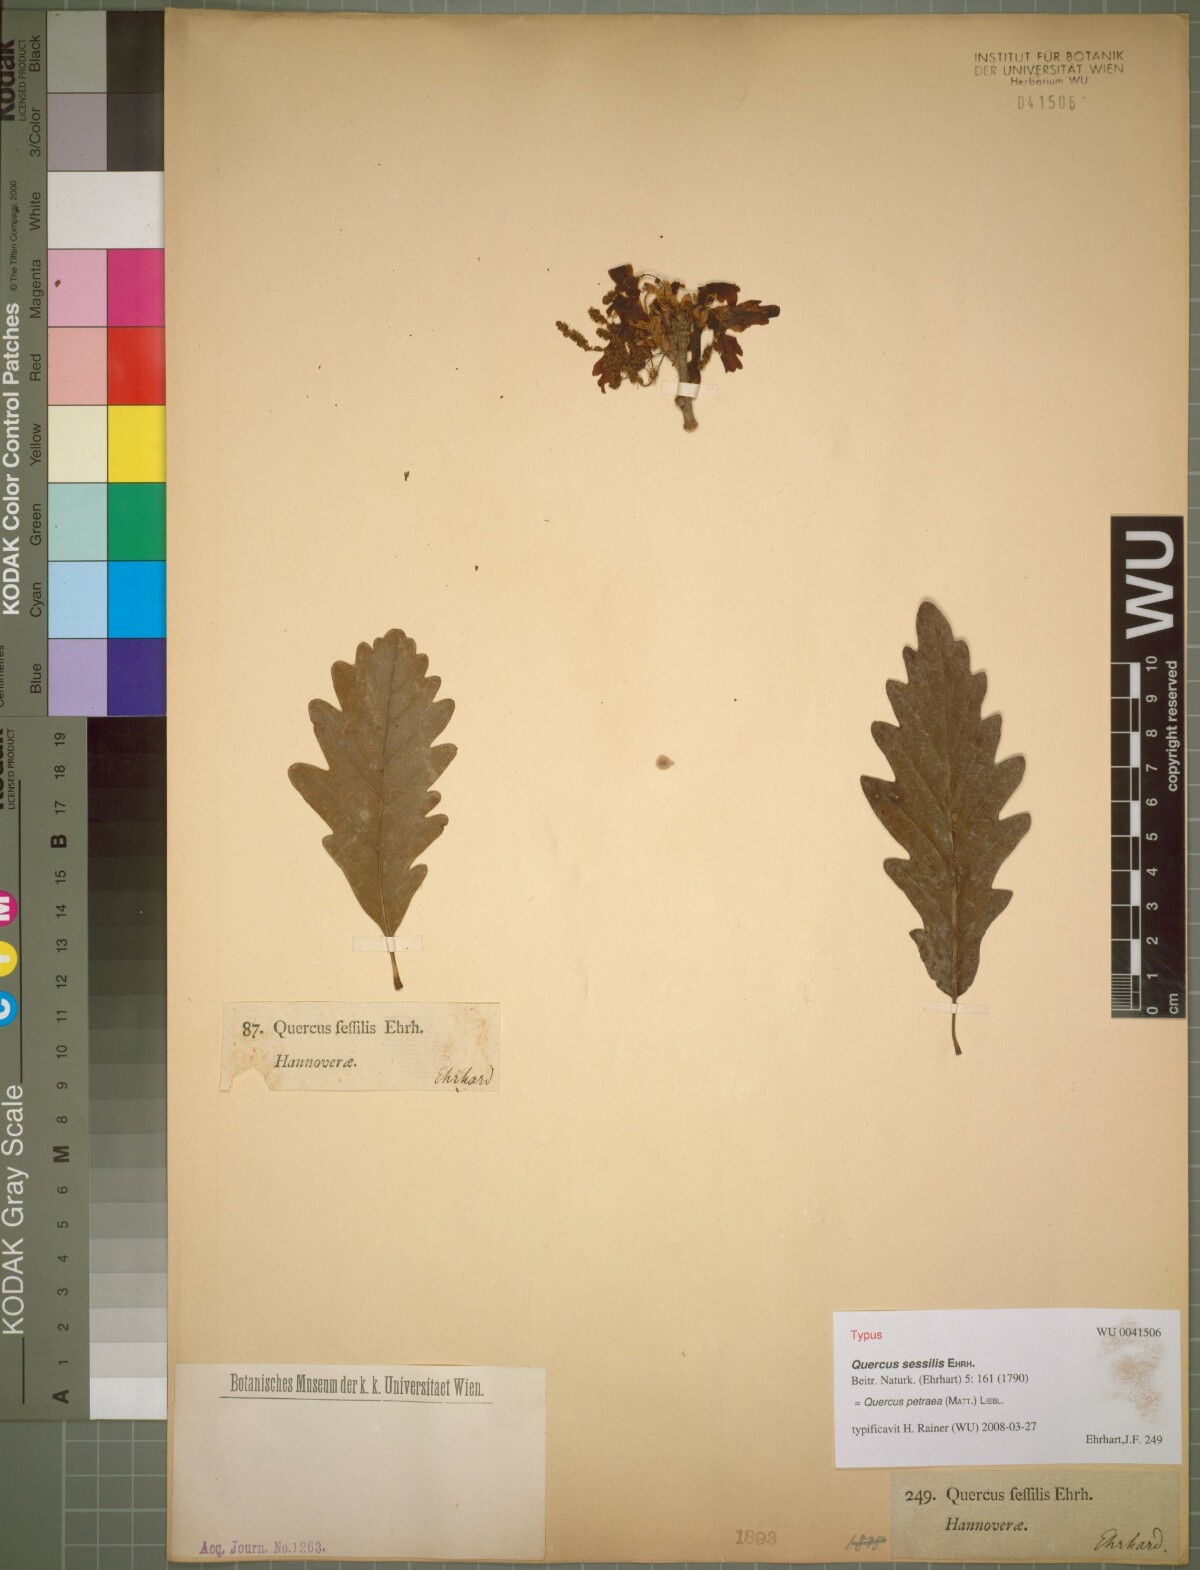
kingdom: Plantae
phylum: Tracheophyta
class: Magnoliopsida
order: Fagales
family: Fagaceae
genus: Quercus
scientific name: Quercus petraea
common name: Sessile oak
